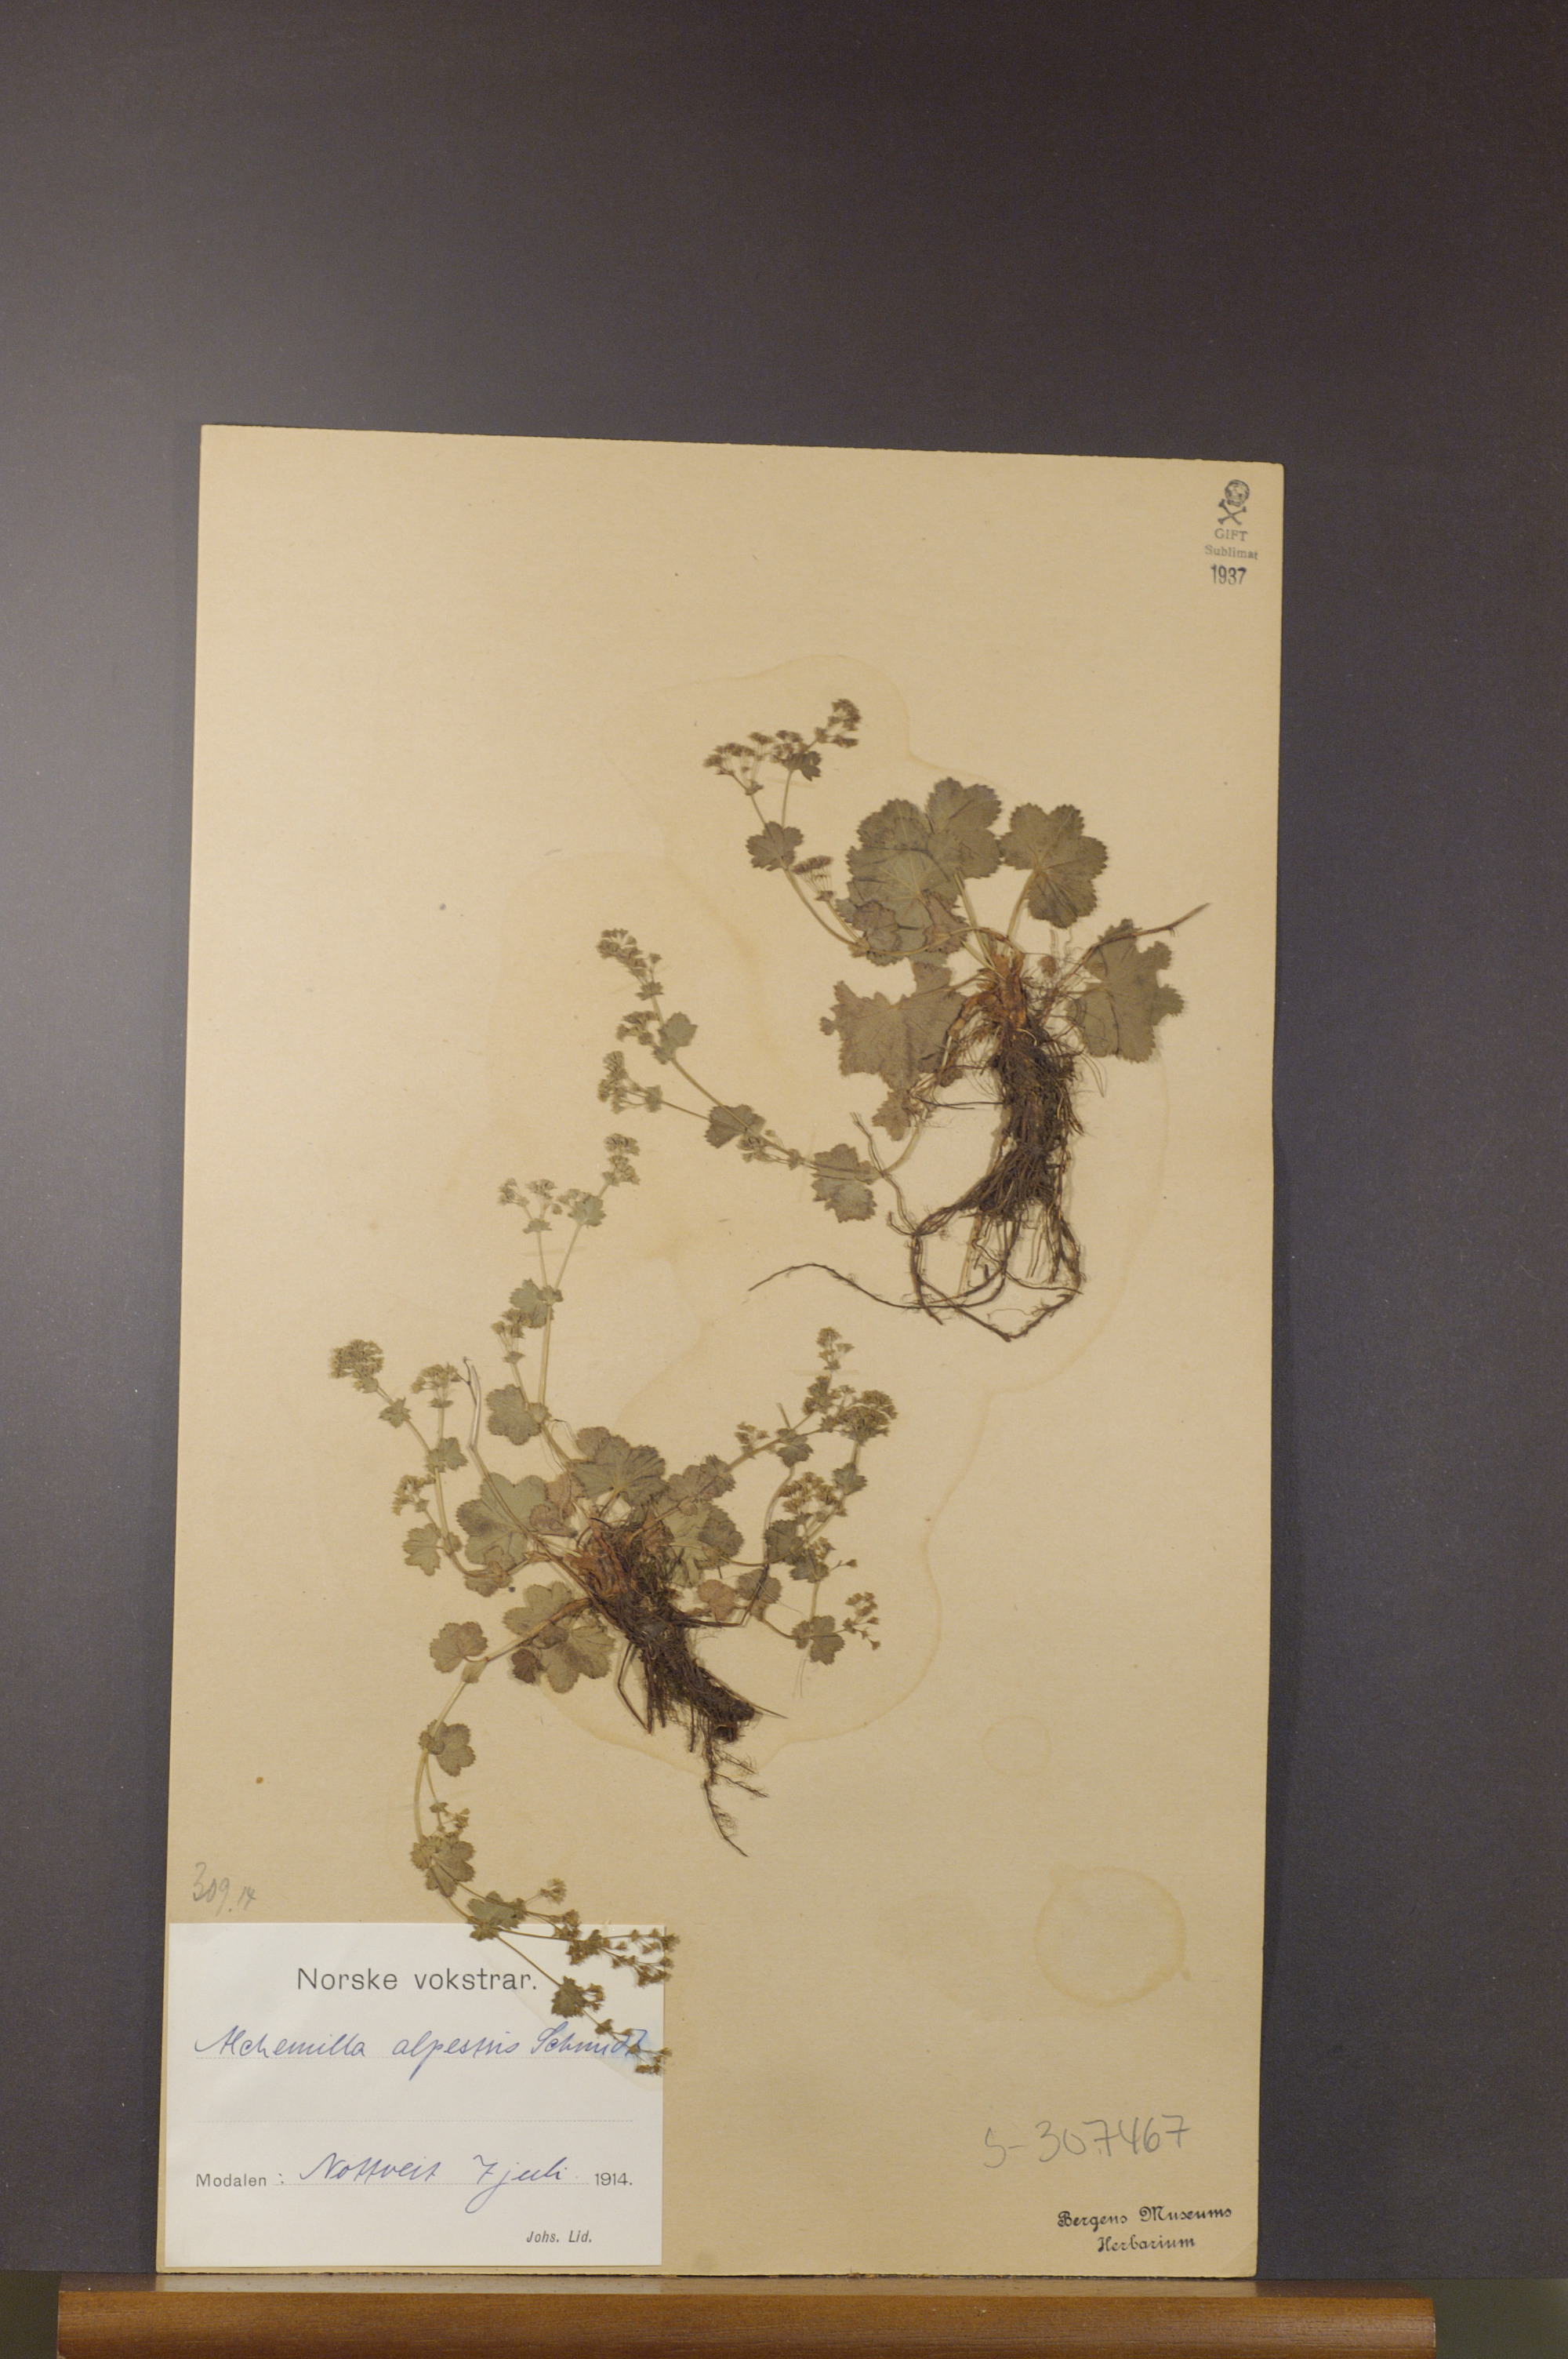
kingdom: Plantae
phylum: Tracheophyta
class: Magnoliopsida
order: Rosales
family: Rosaceae
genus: Alchemilla
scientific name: Alchemilla glabra
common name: Smooth lady's-mantle
